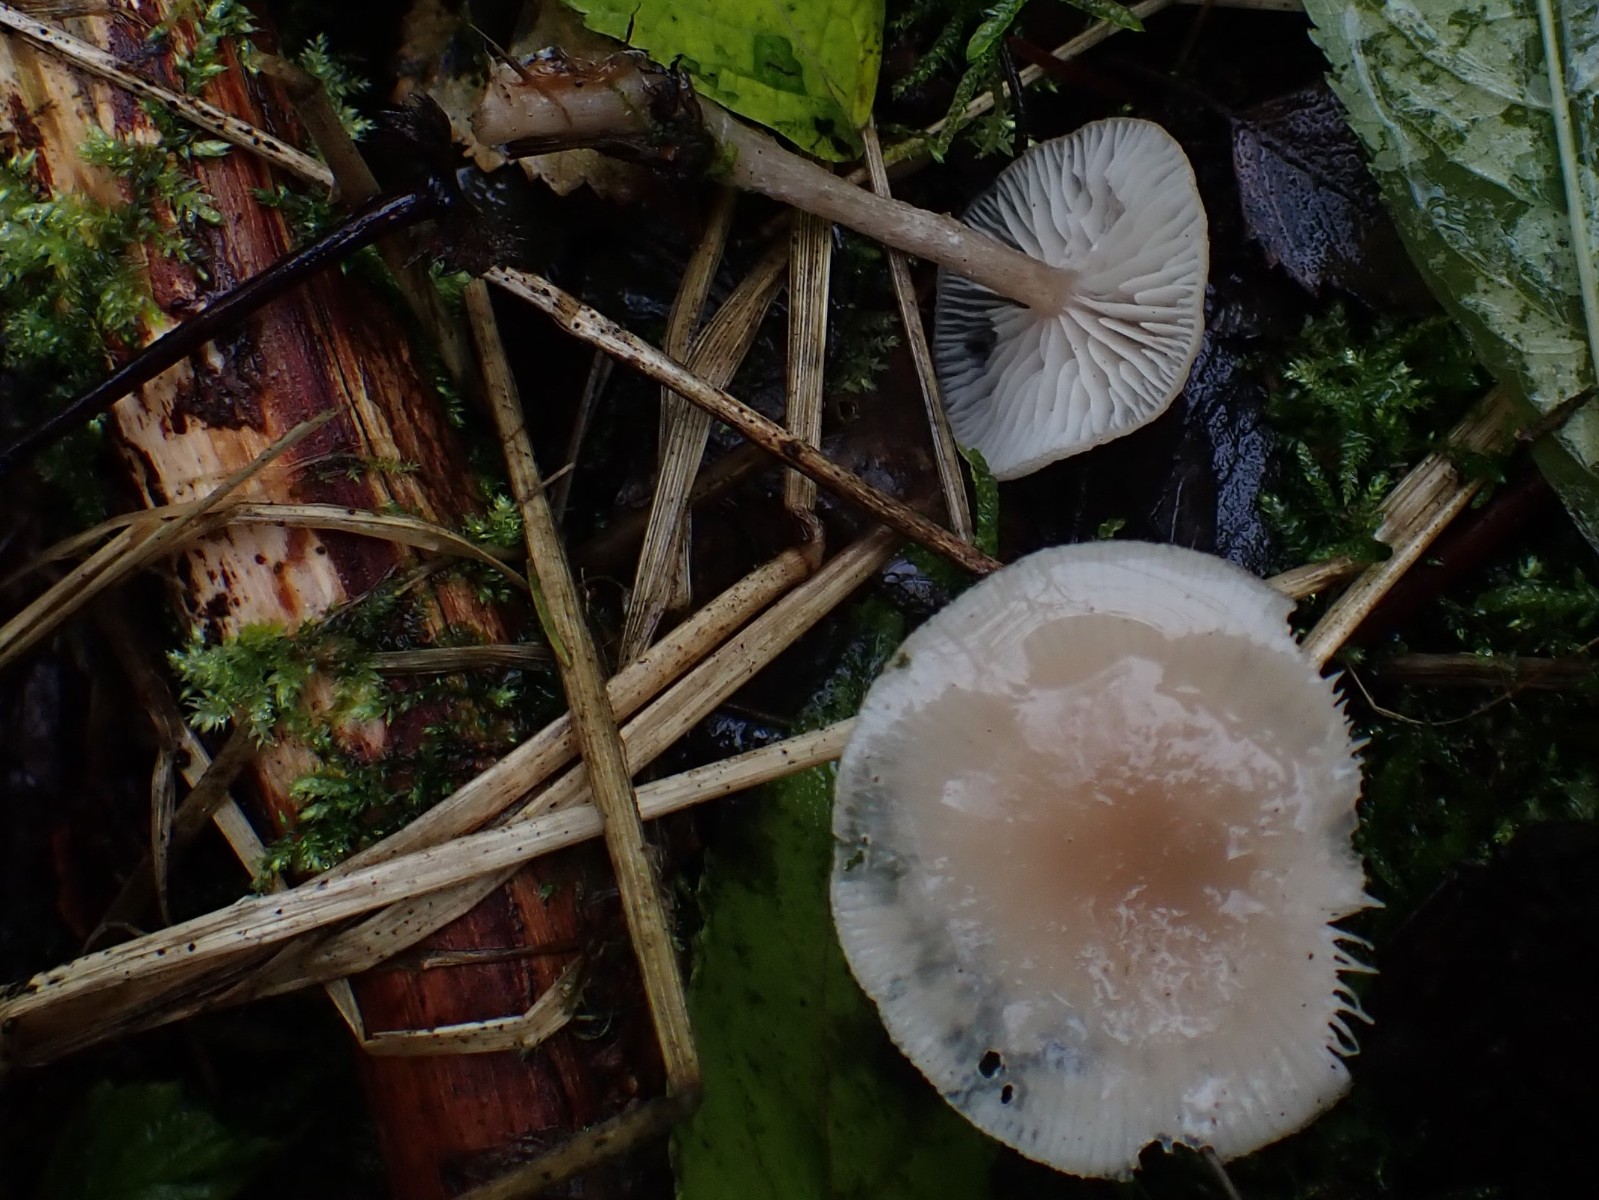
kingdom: Fungi
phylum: Basidiomycota
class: Agaricomycetes
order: Agaricales
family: Tricholomataceae
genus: Clitocybe
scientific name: Clitocybe fragrans
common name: vellugtende tragthat
